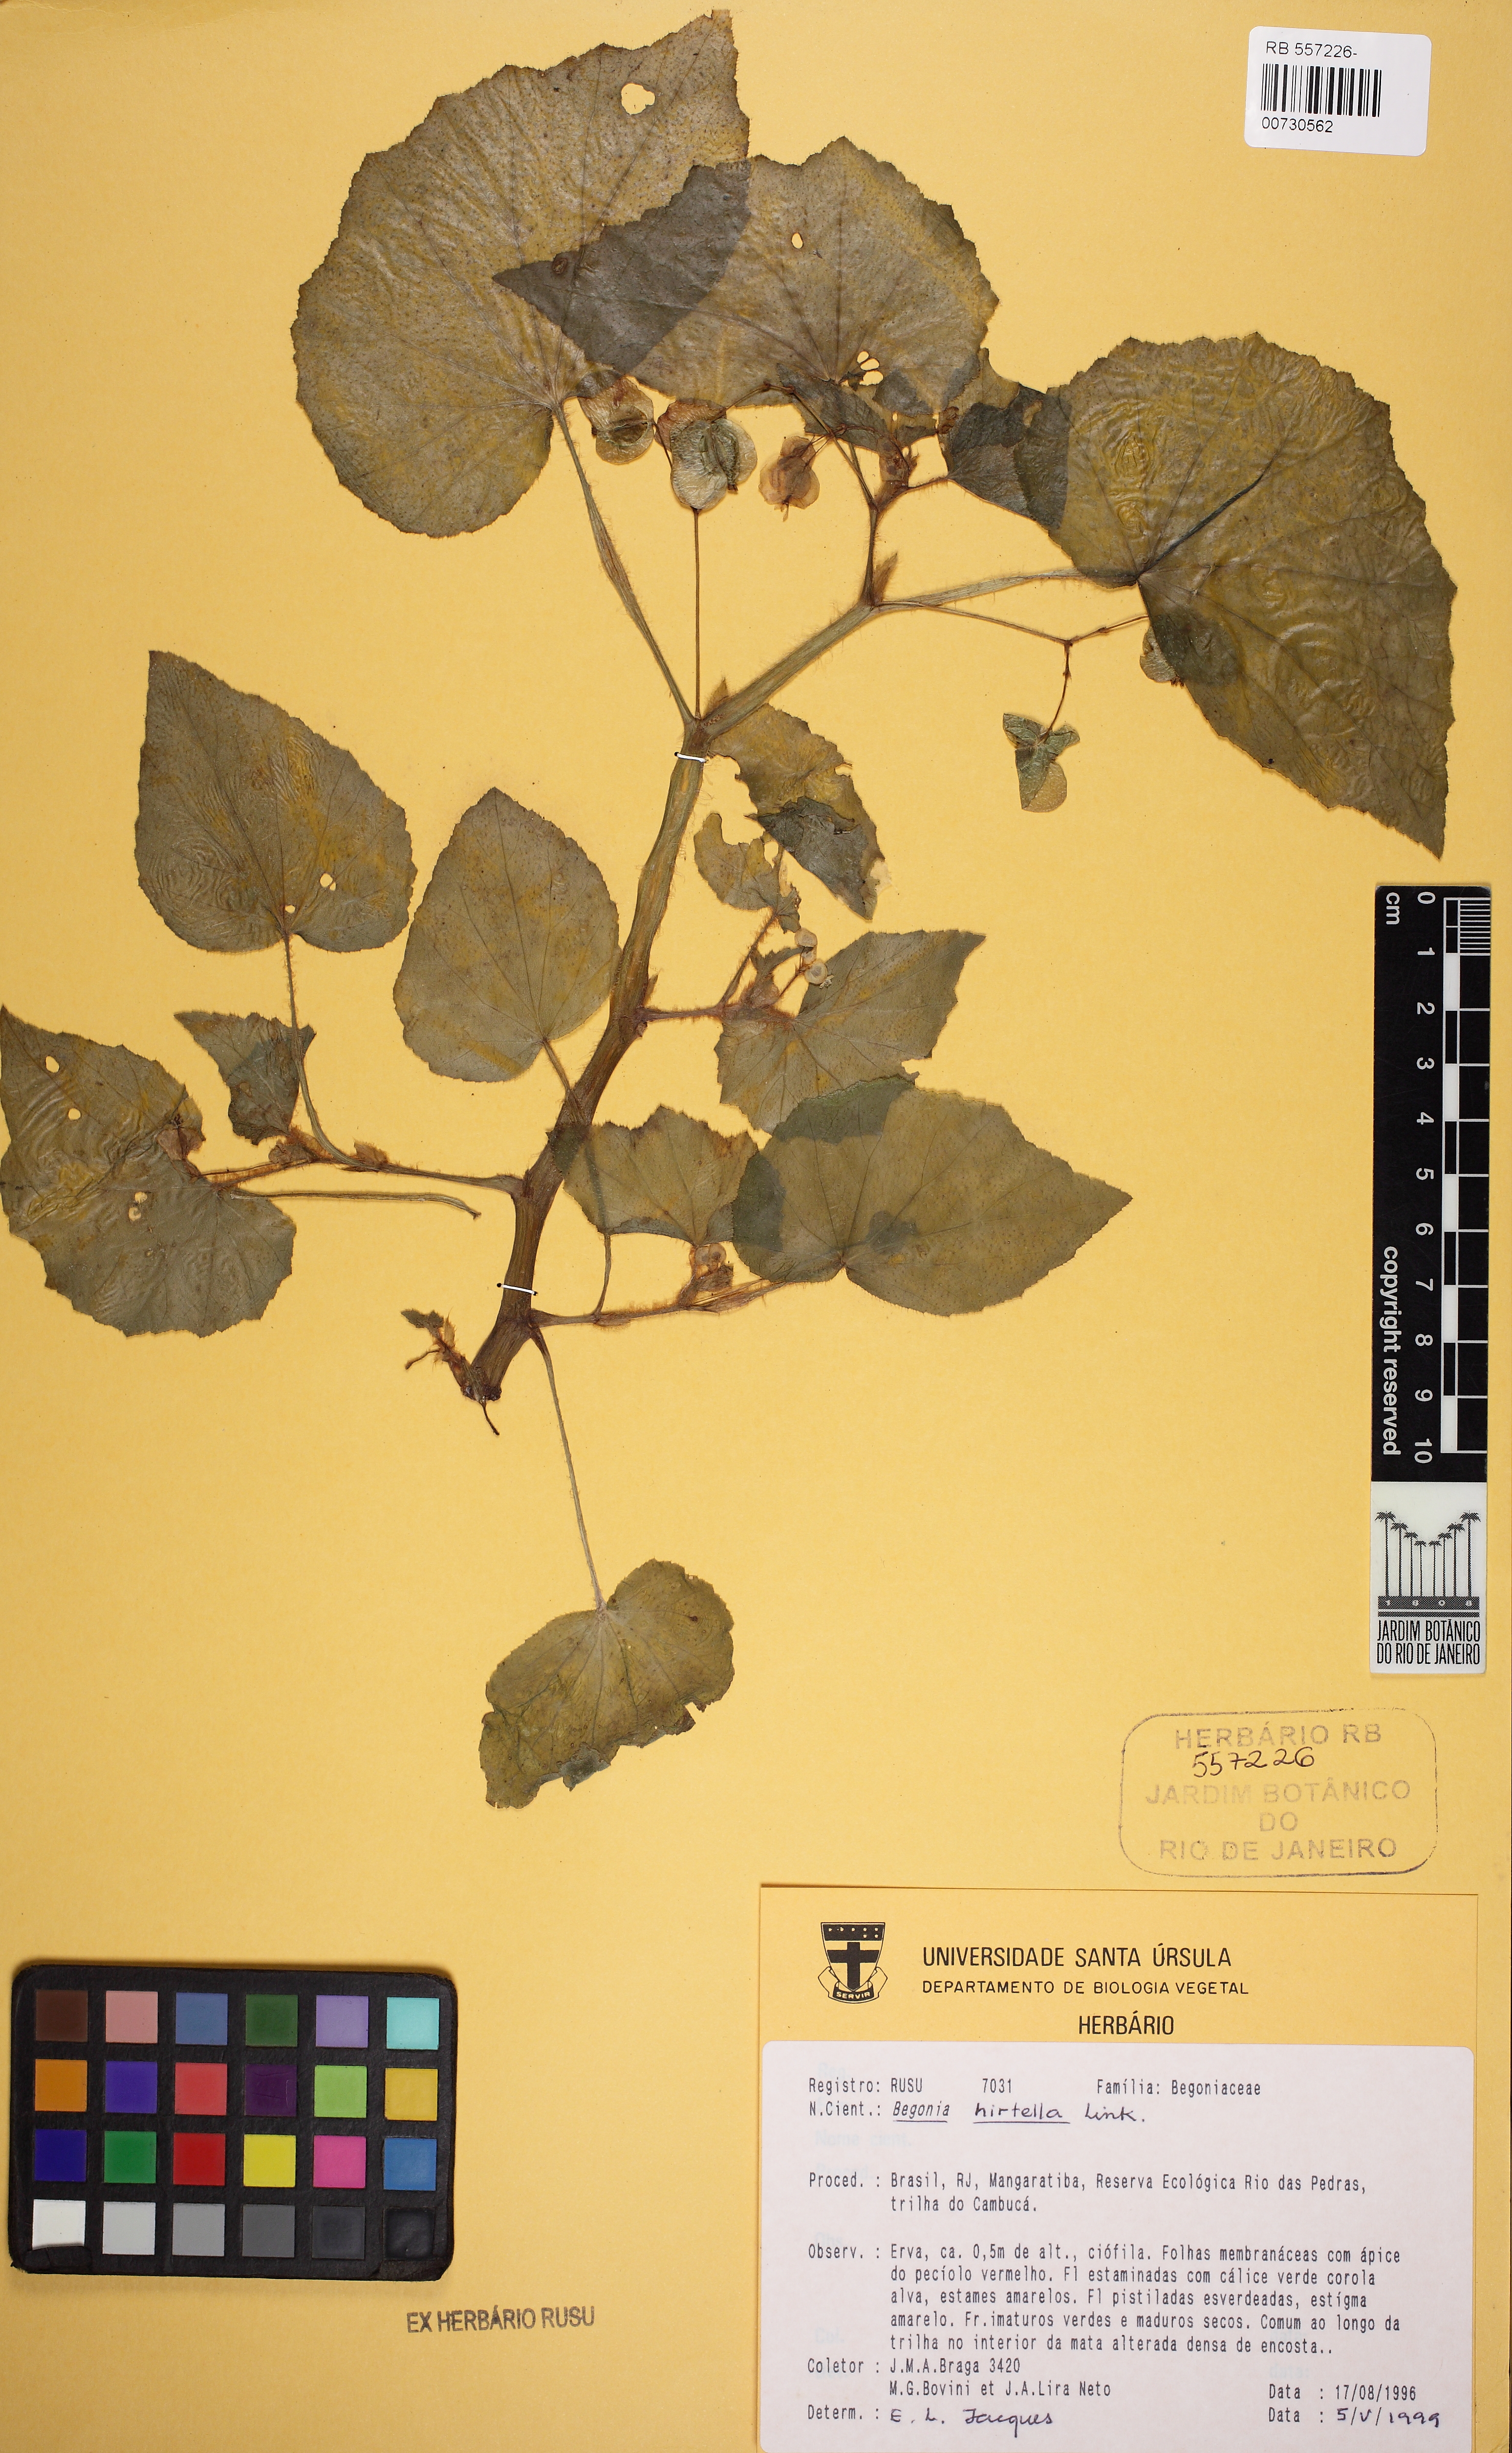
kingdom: Plantae
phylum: Tracheophyta
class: Magnoliopsida
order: Cucurbitales
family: Begoniaceae
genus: Begonia
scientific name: Begonia hirtella
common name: Brazilian begonia
